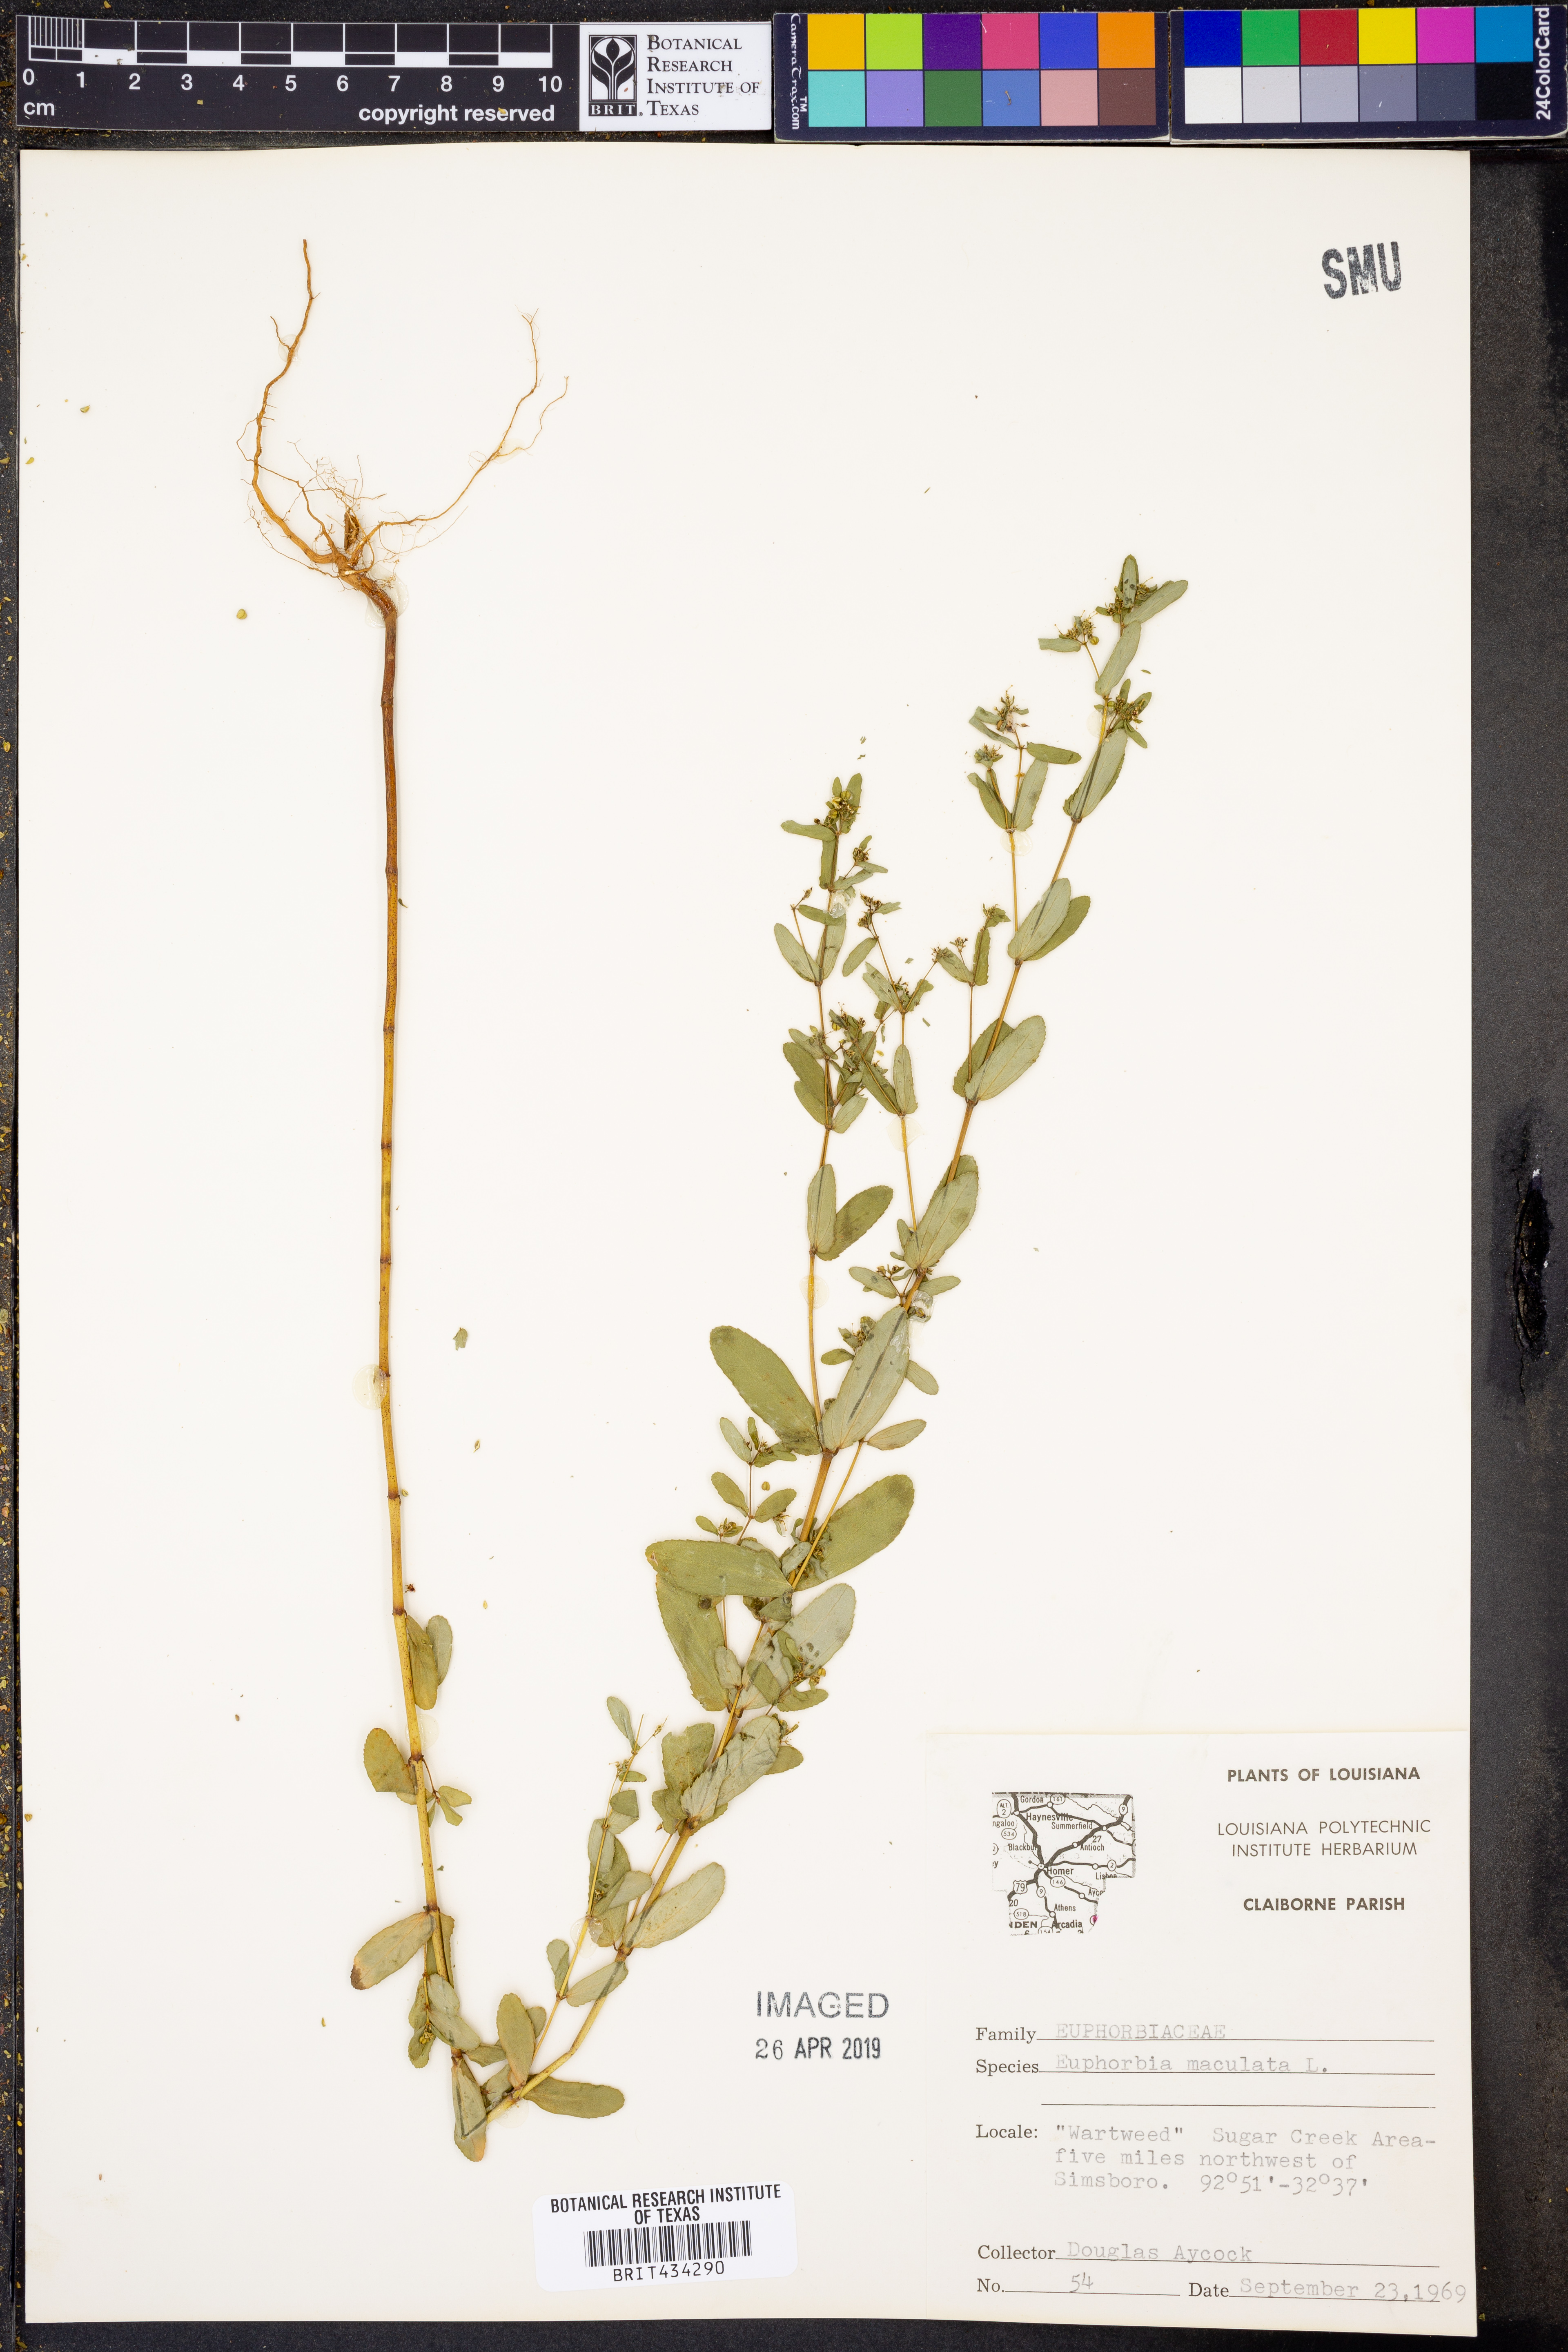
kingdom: Plantae
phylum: Tracheophyta
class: Magnoliopsida
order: Malpighiales
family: Euphorbiaceae
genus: Euphorbia
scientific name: Euphorbia maculata
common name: Spotted spurge
